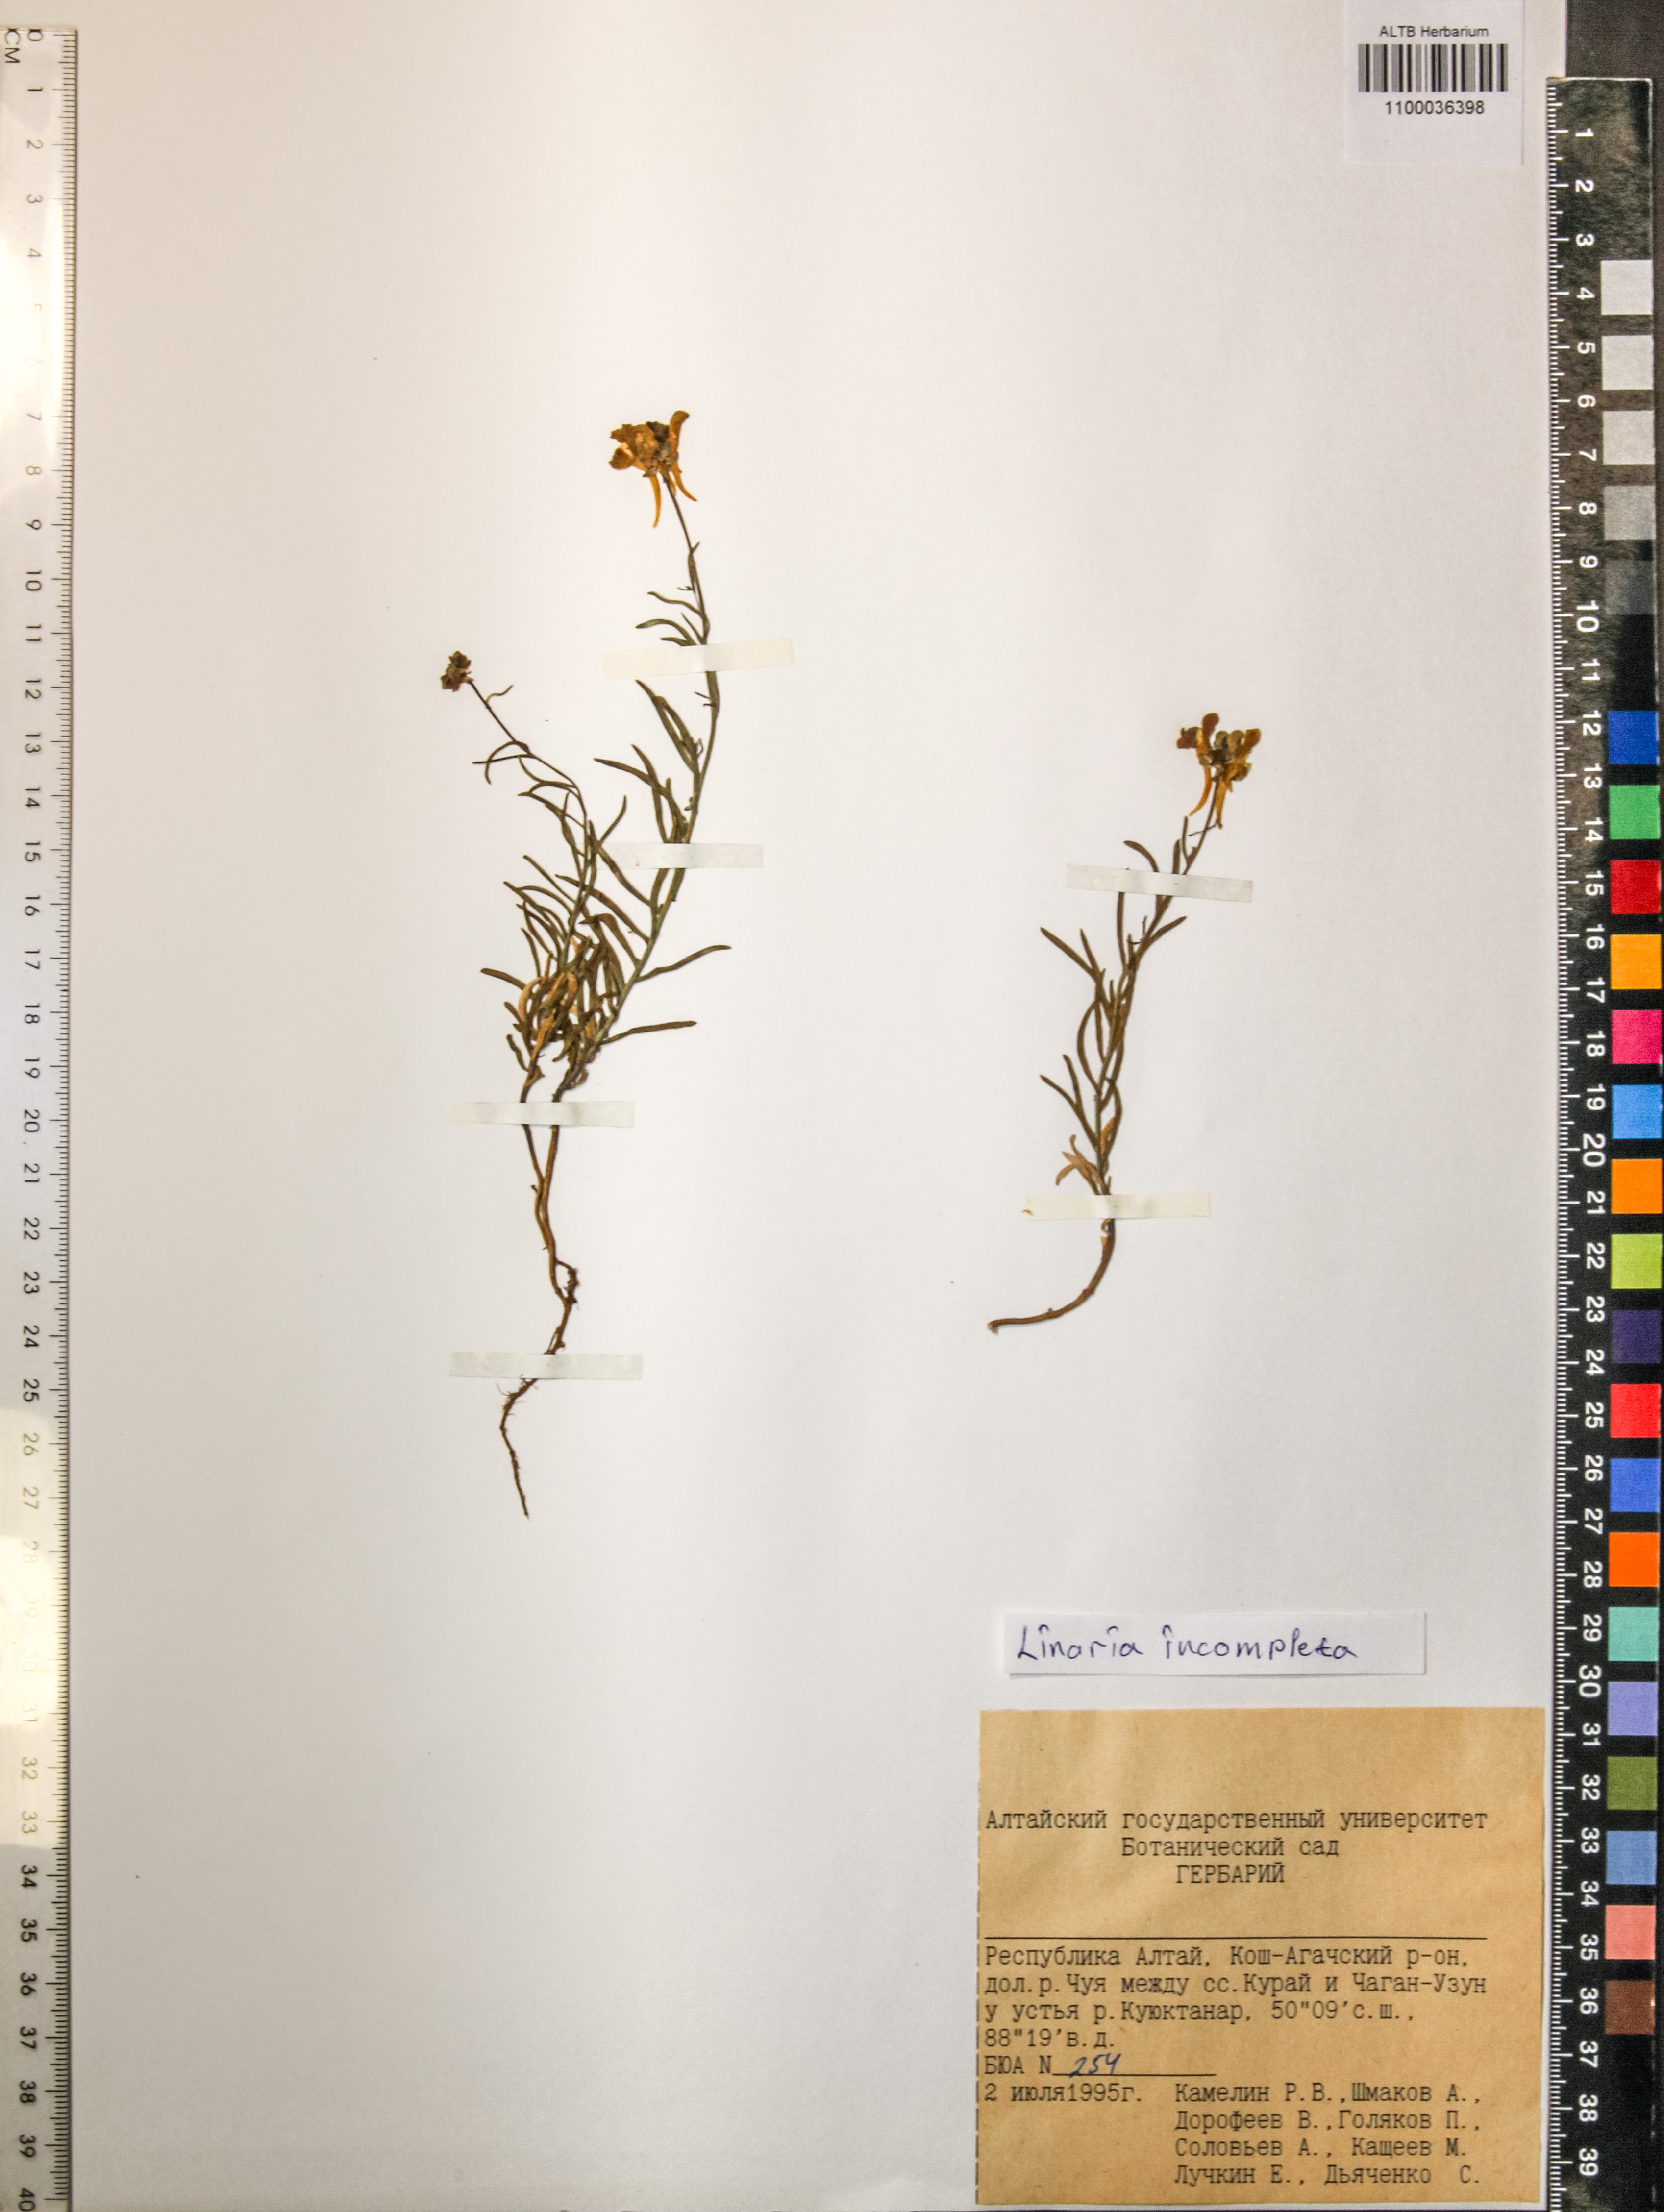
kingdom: Plantae
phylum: Tracheophyta
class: Magnoliopsida
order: Lamiales
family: Plantaginaceae
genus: Linaria
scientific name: Linaria incompleta
